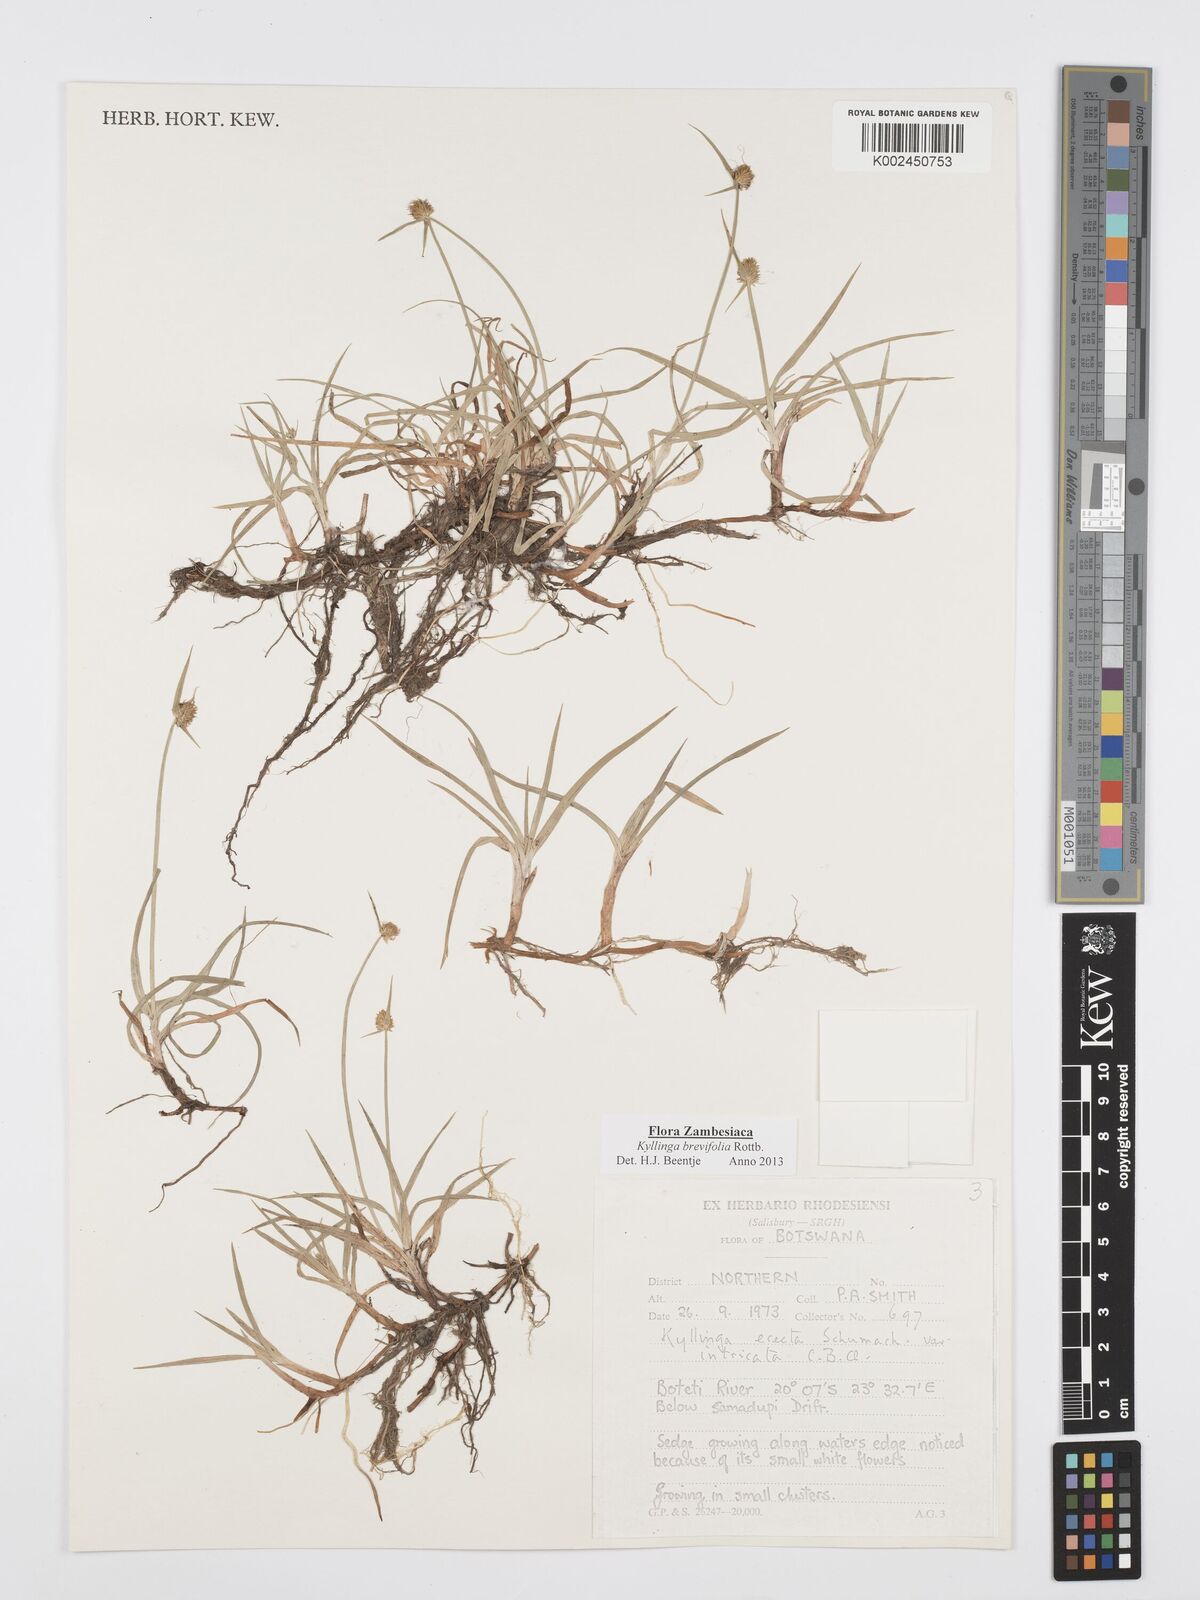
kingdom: Plantae
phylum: Tracheophyta
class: Liliopsida
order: Poales
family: Cyperaceae
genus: Cyperus
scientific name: Cyperus brevifolius
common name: Globe kyllinga
